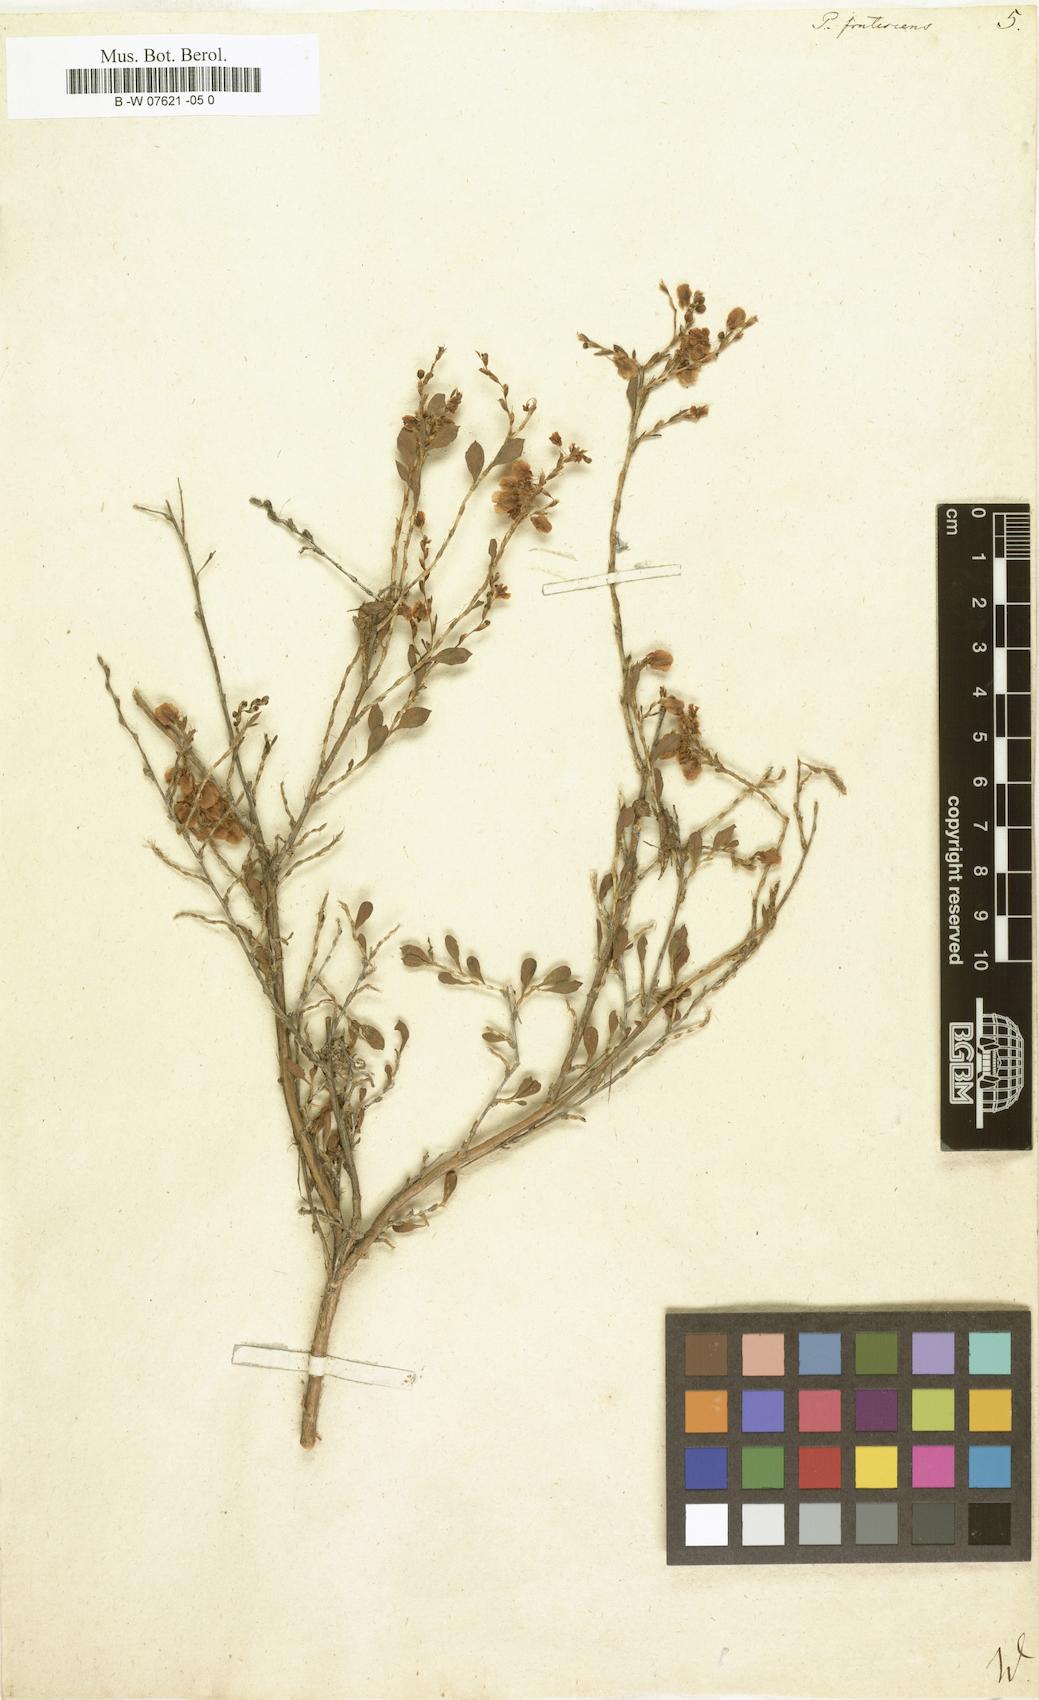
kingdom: Plantae
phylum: Tracheophyta
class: Magnoliopsida
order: Caryophyllales
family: Polygonaceae
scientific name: Polygonaceae
